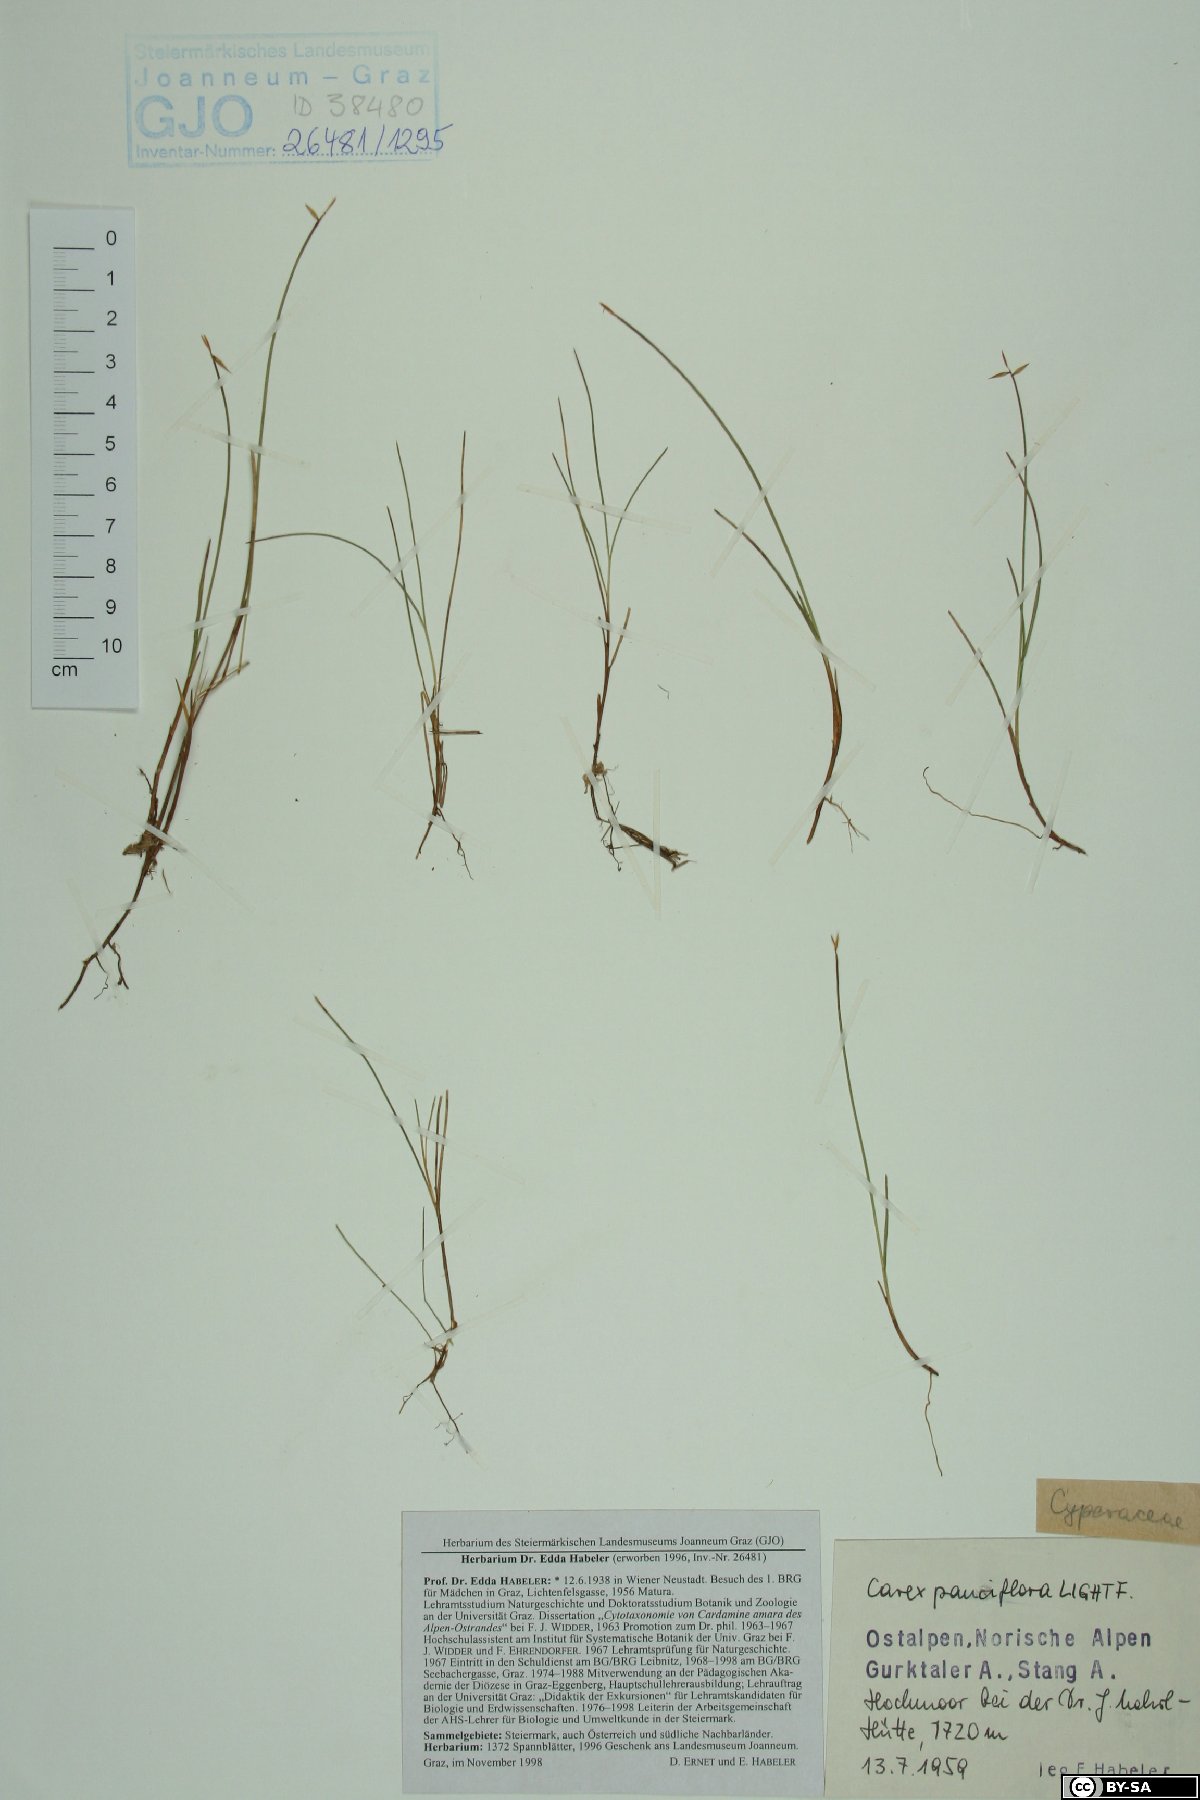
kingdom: Plantae
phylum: Tracheophyta
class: Liliopsida
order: Poales
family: Cyperaceae
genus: Carex
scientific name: Carex pauciflora
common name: Few-flowered sedge
